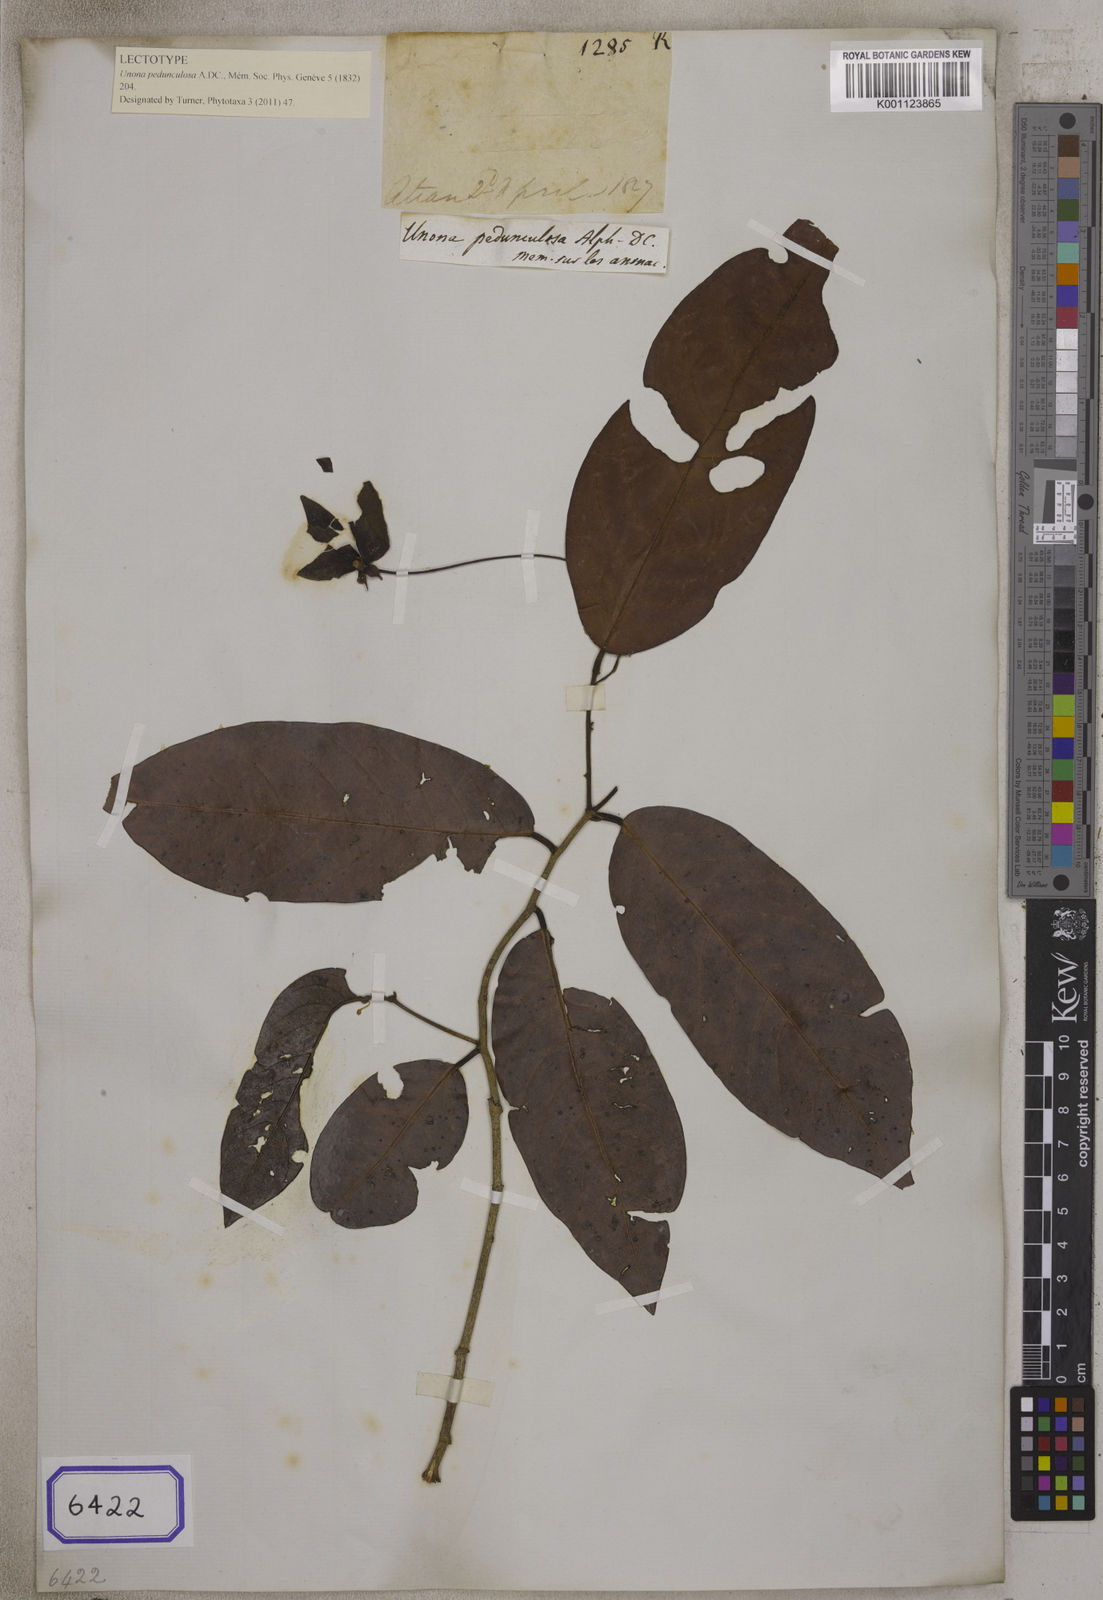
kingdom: Plantae
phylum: Tracheophyta
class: Magnoliopsida
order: Magnoliales
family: Annonaceae
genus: Desmos
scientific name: Desmos pedunculosus
